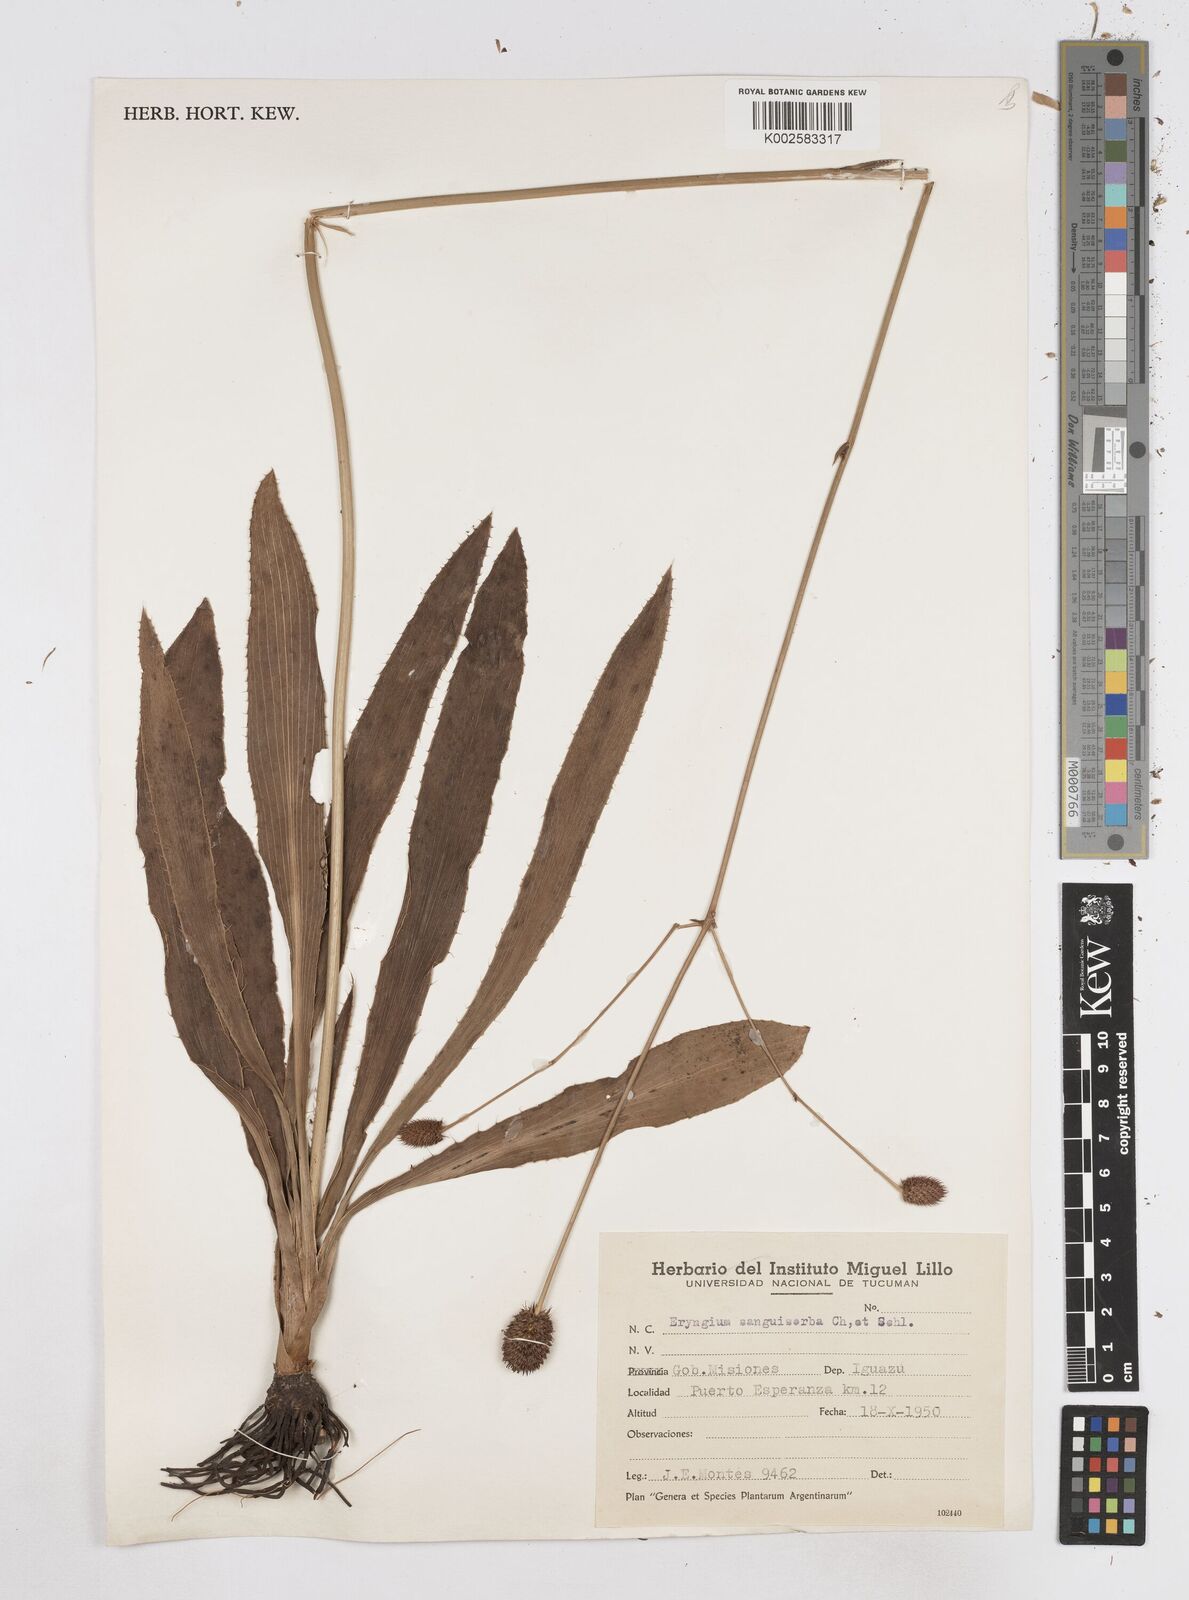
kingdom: Plantae
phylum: Tracheophyta
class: Magnoliopsida
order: Apiales
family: Apiaceae
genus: Eryngium
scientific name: Eryngium sanguisorba
